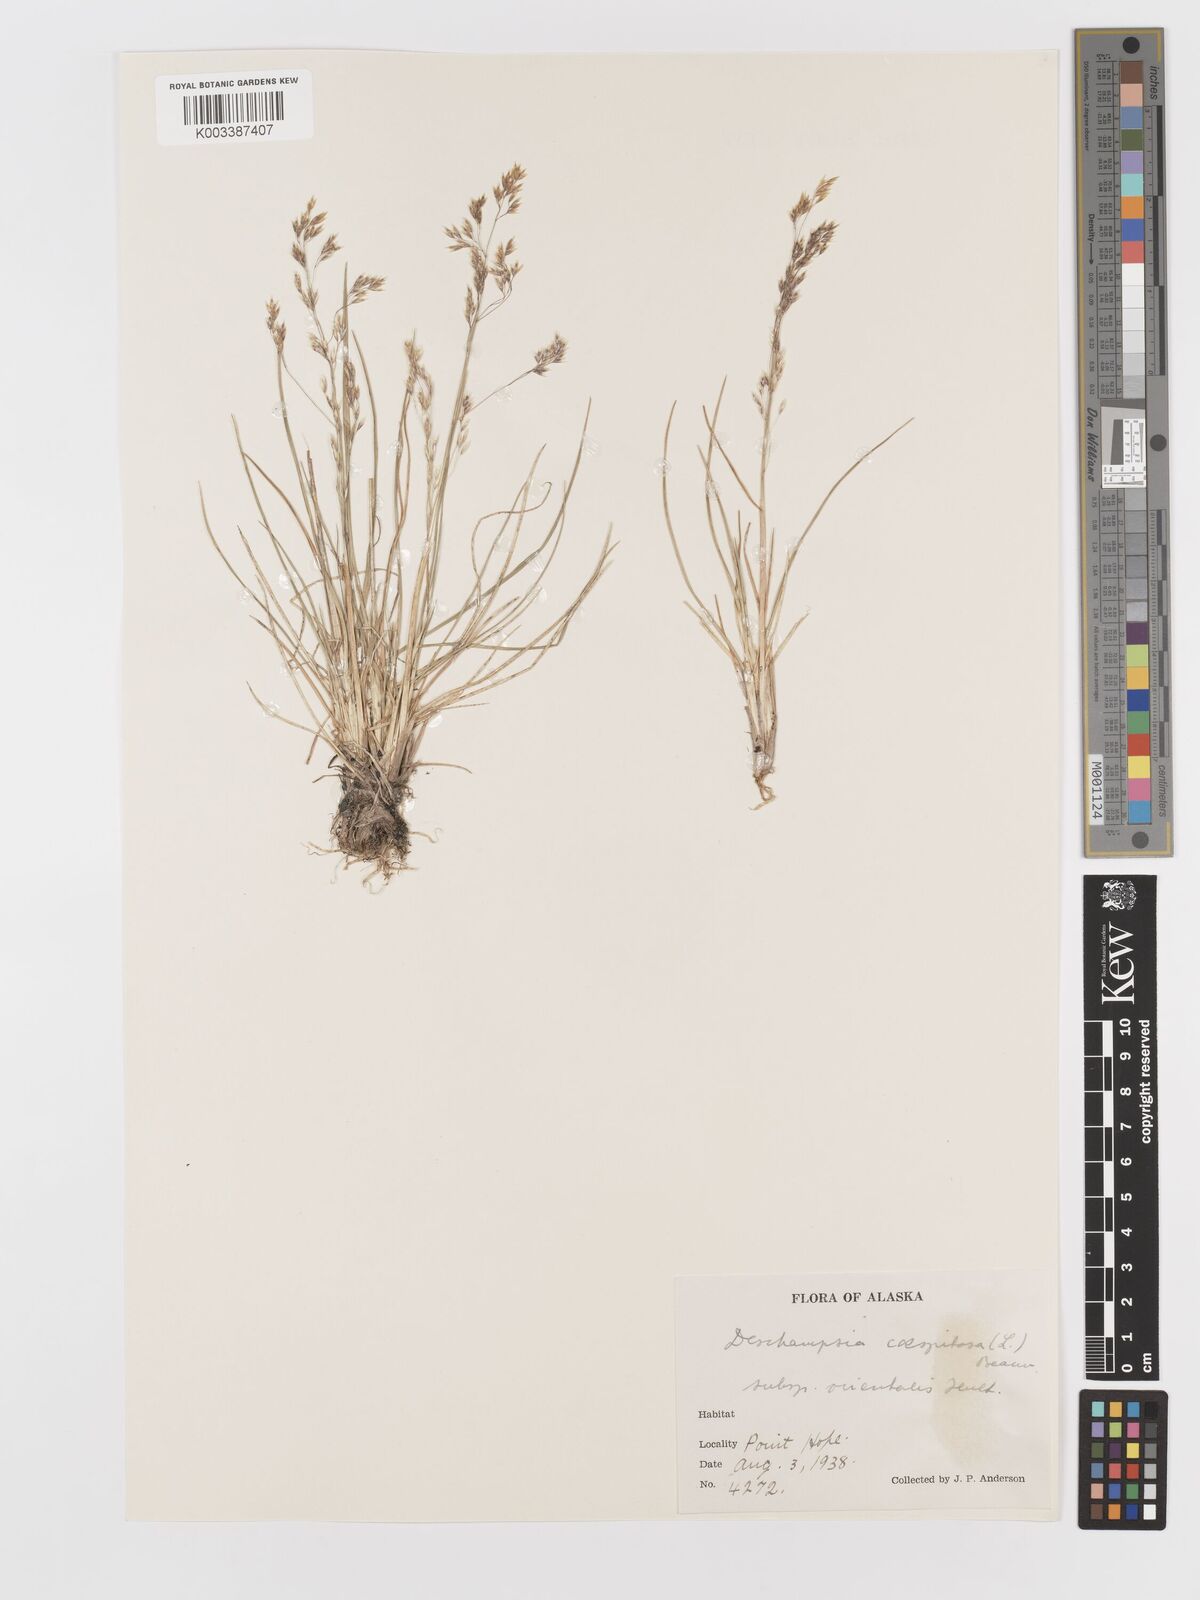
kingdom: Plantae
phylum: Tracheophyta
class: Liliopsida
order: Poales
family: Poaceae
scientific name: Poaceae
